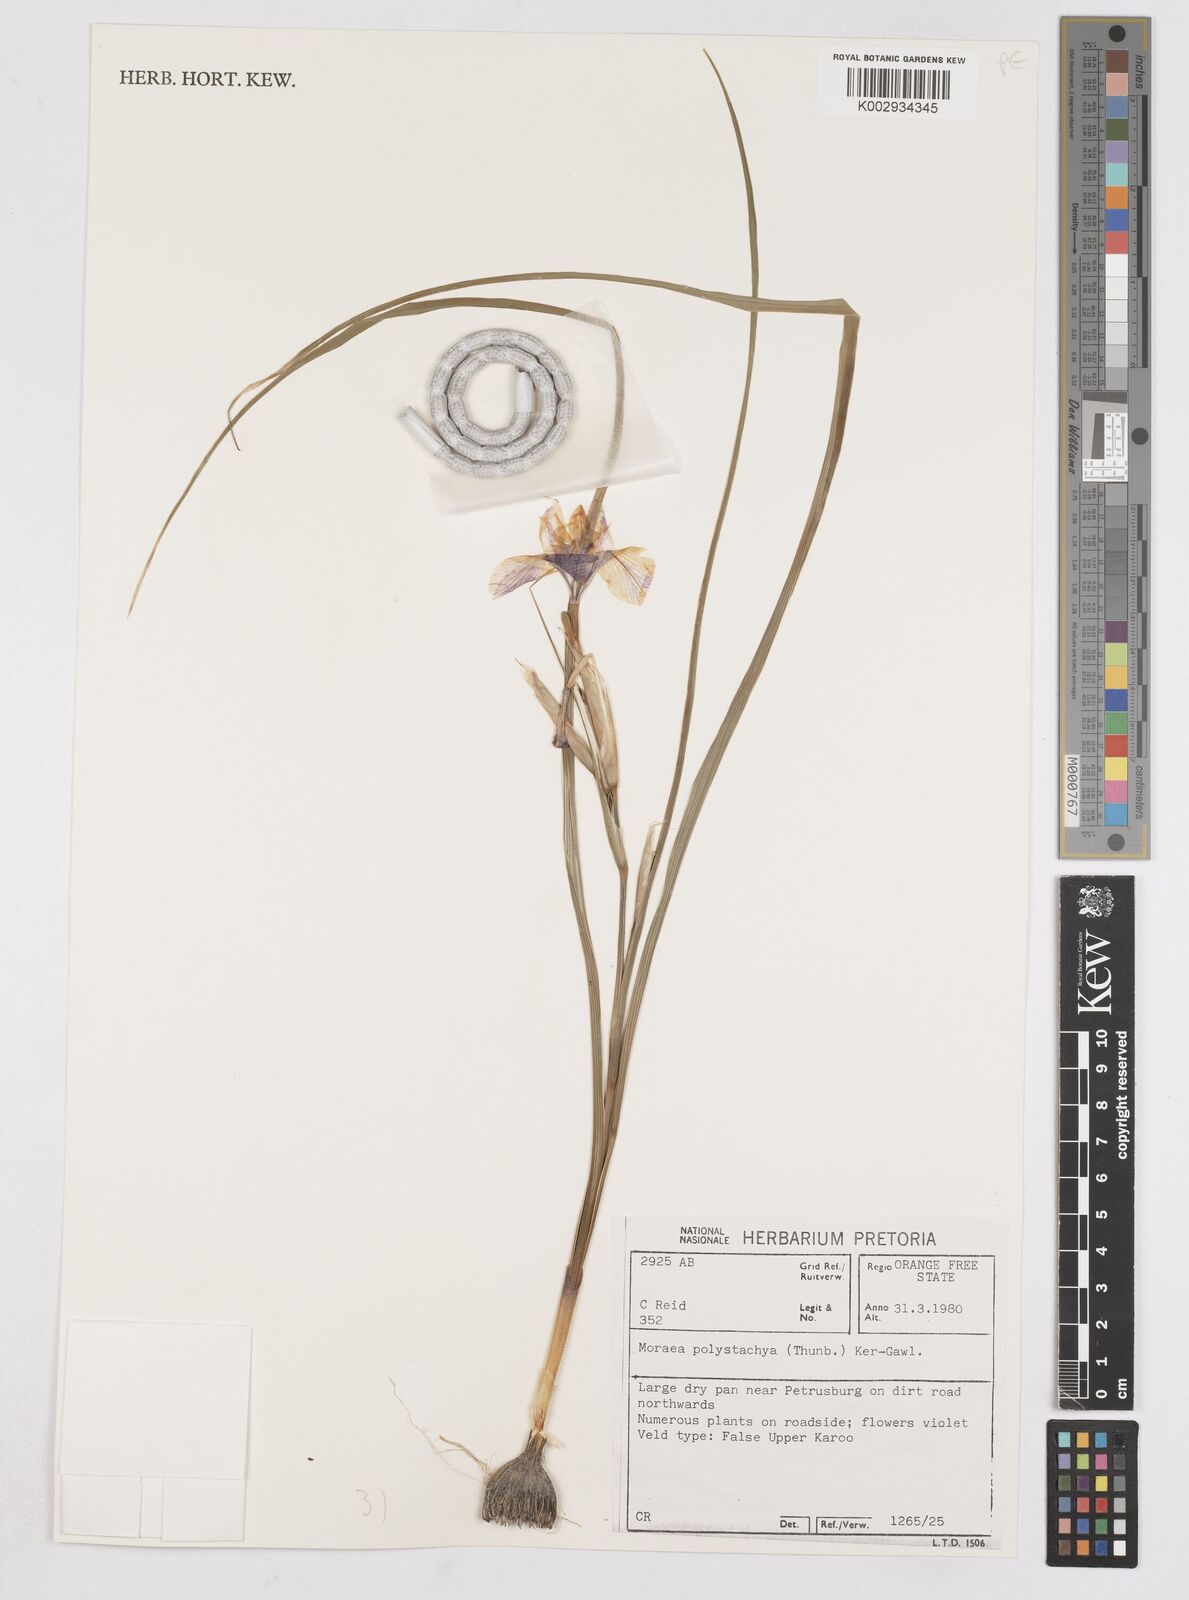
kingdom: Plantae
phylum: Tracheophyta
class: Liliopsida
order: Asparagales
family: Iridaceae
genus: Moraea
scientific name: Moraea polystachya
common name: Blue-tulip
